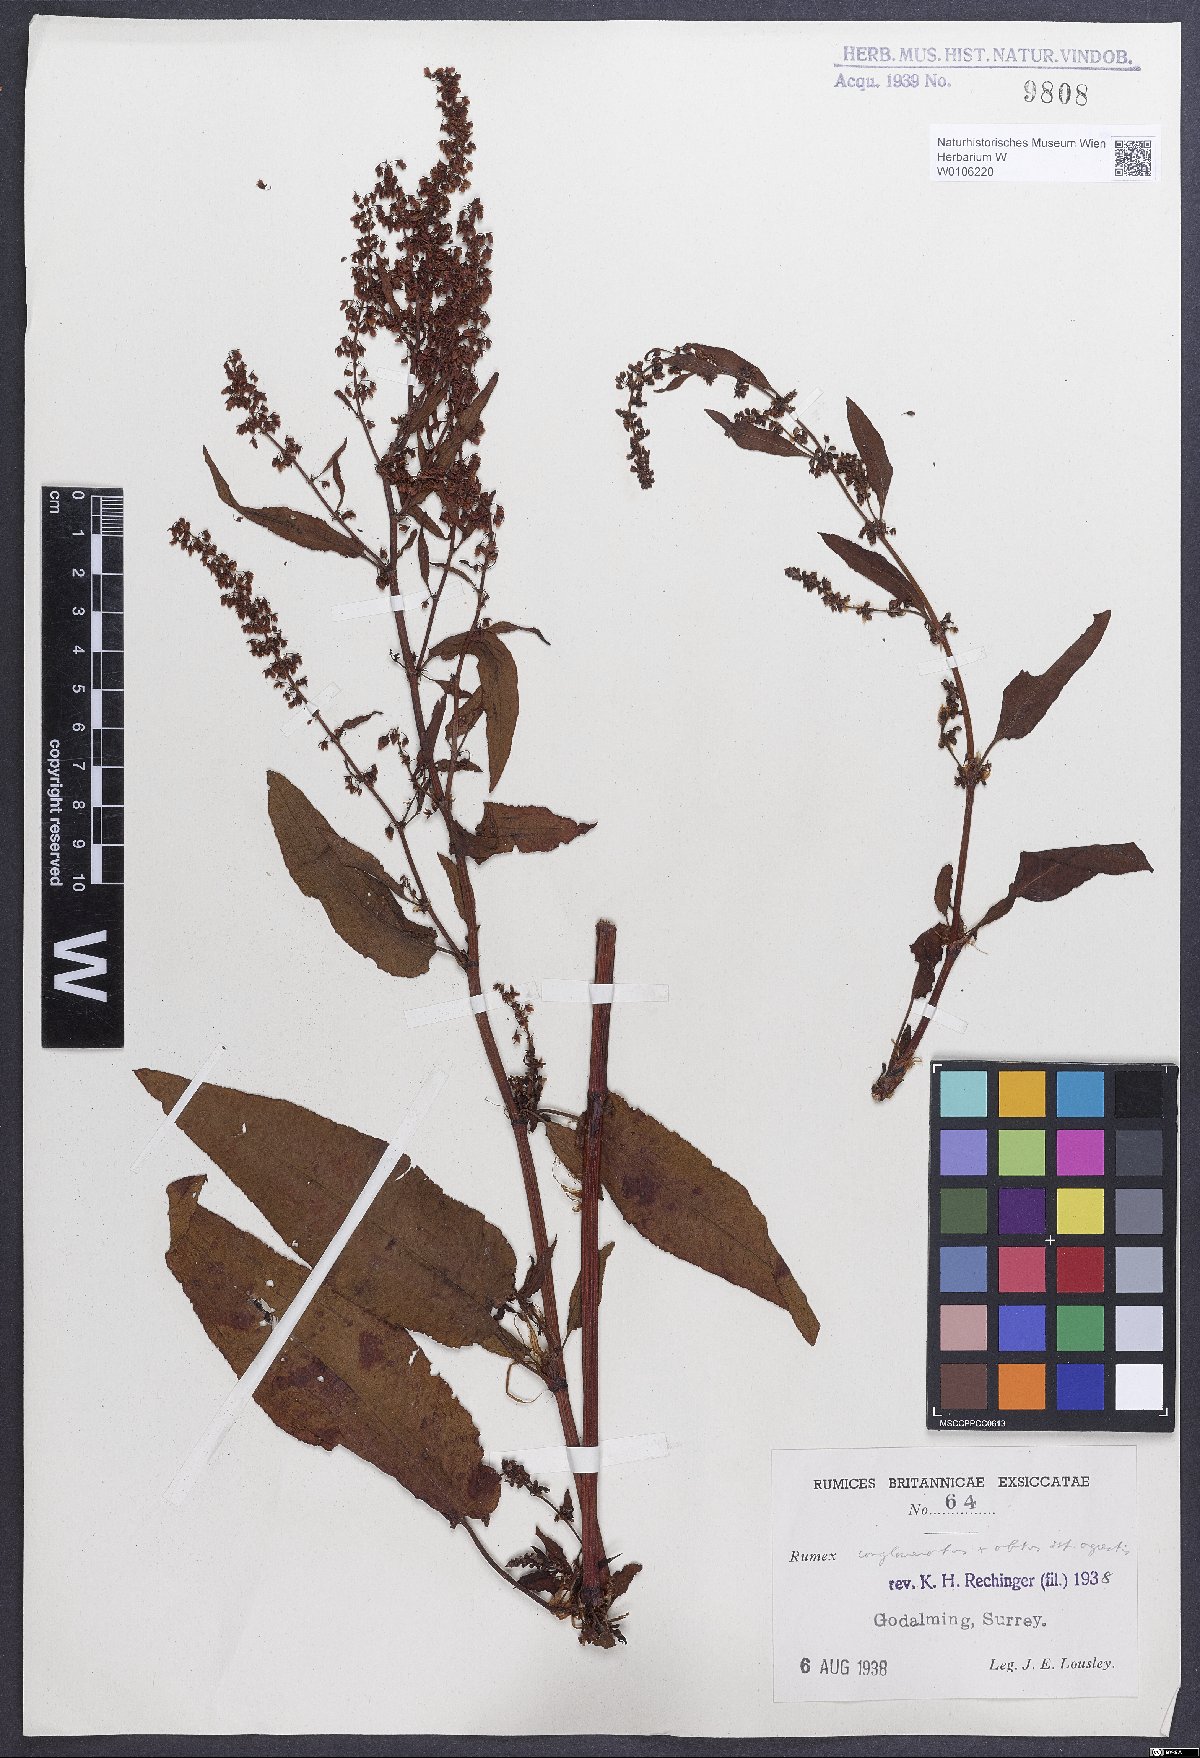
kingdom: Plantae
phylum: Tracheophyta
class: Magnoliopsida
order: Caryophyllales
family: Polygonaceae
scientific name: Polygonaceae
